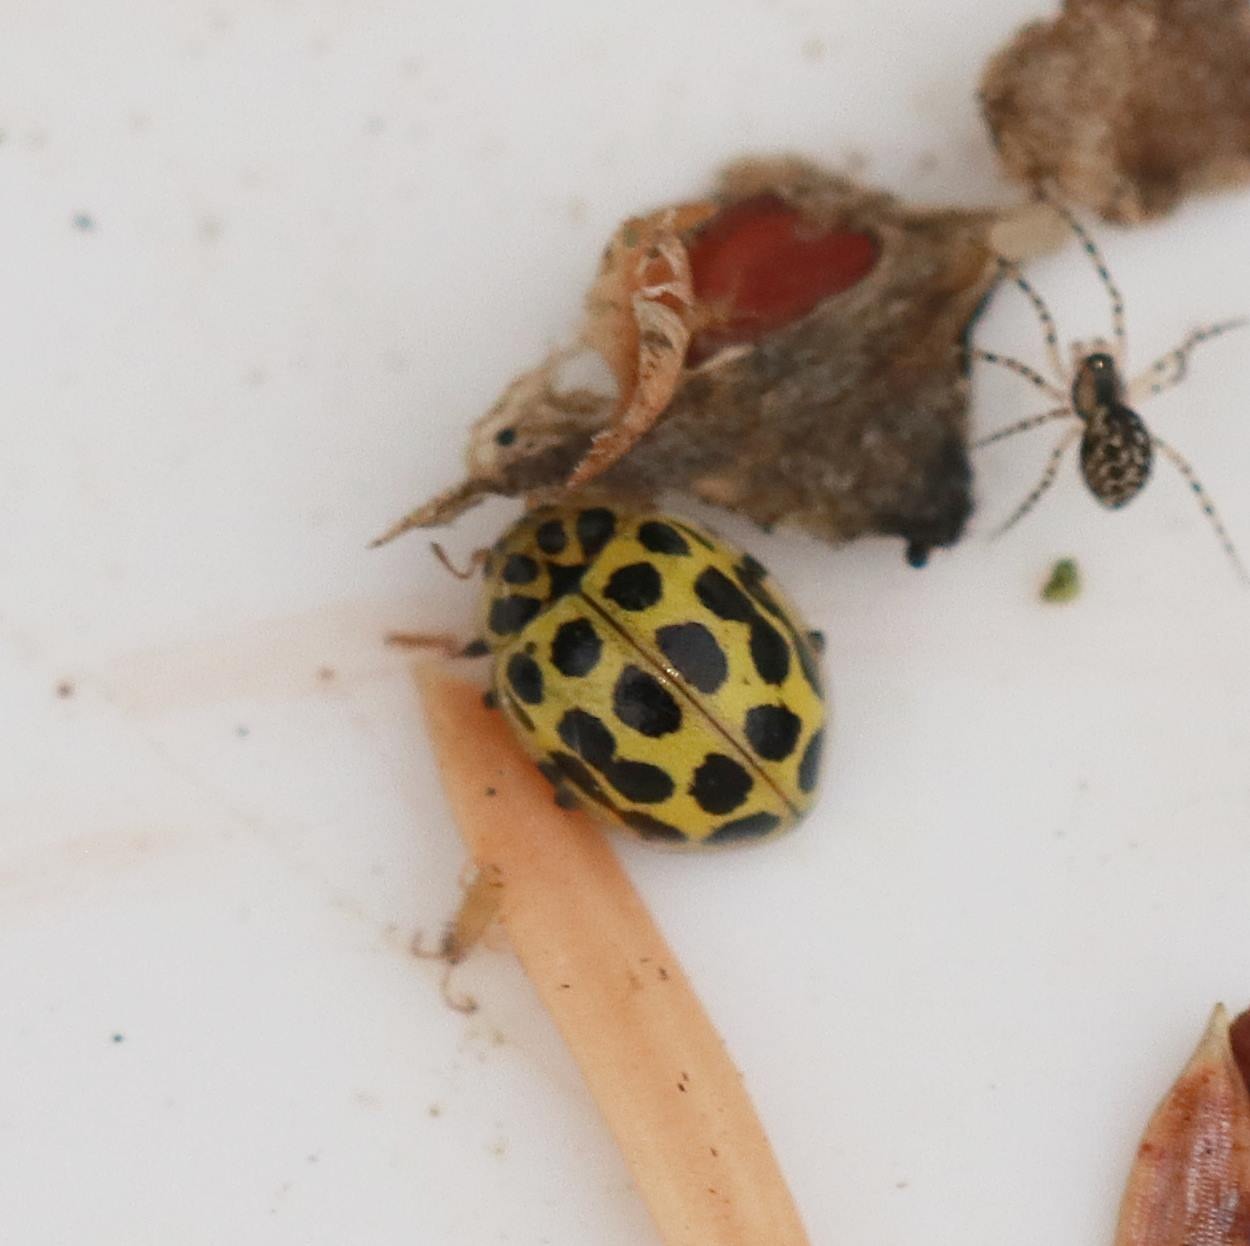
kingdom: Animalia
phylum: Arthropoda
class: Insecta
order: Coleoptera
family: Coccinellidae
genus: Psyllobora
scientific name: Psyllobora vigintiduopunctata
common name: Toogtyveplettet mariehøne
